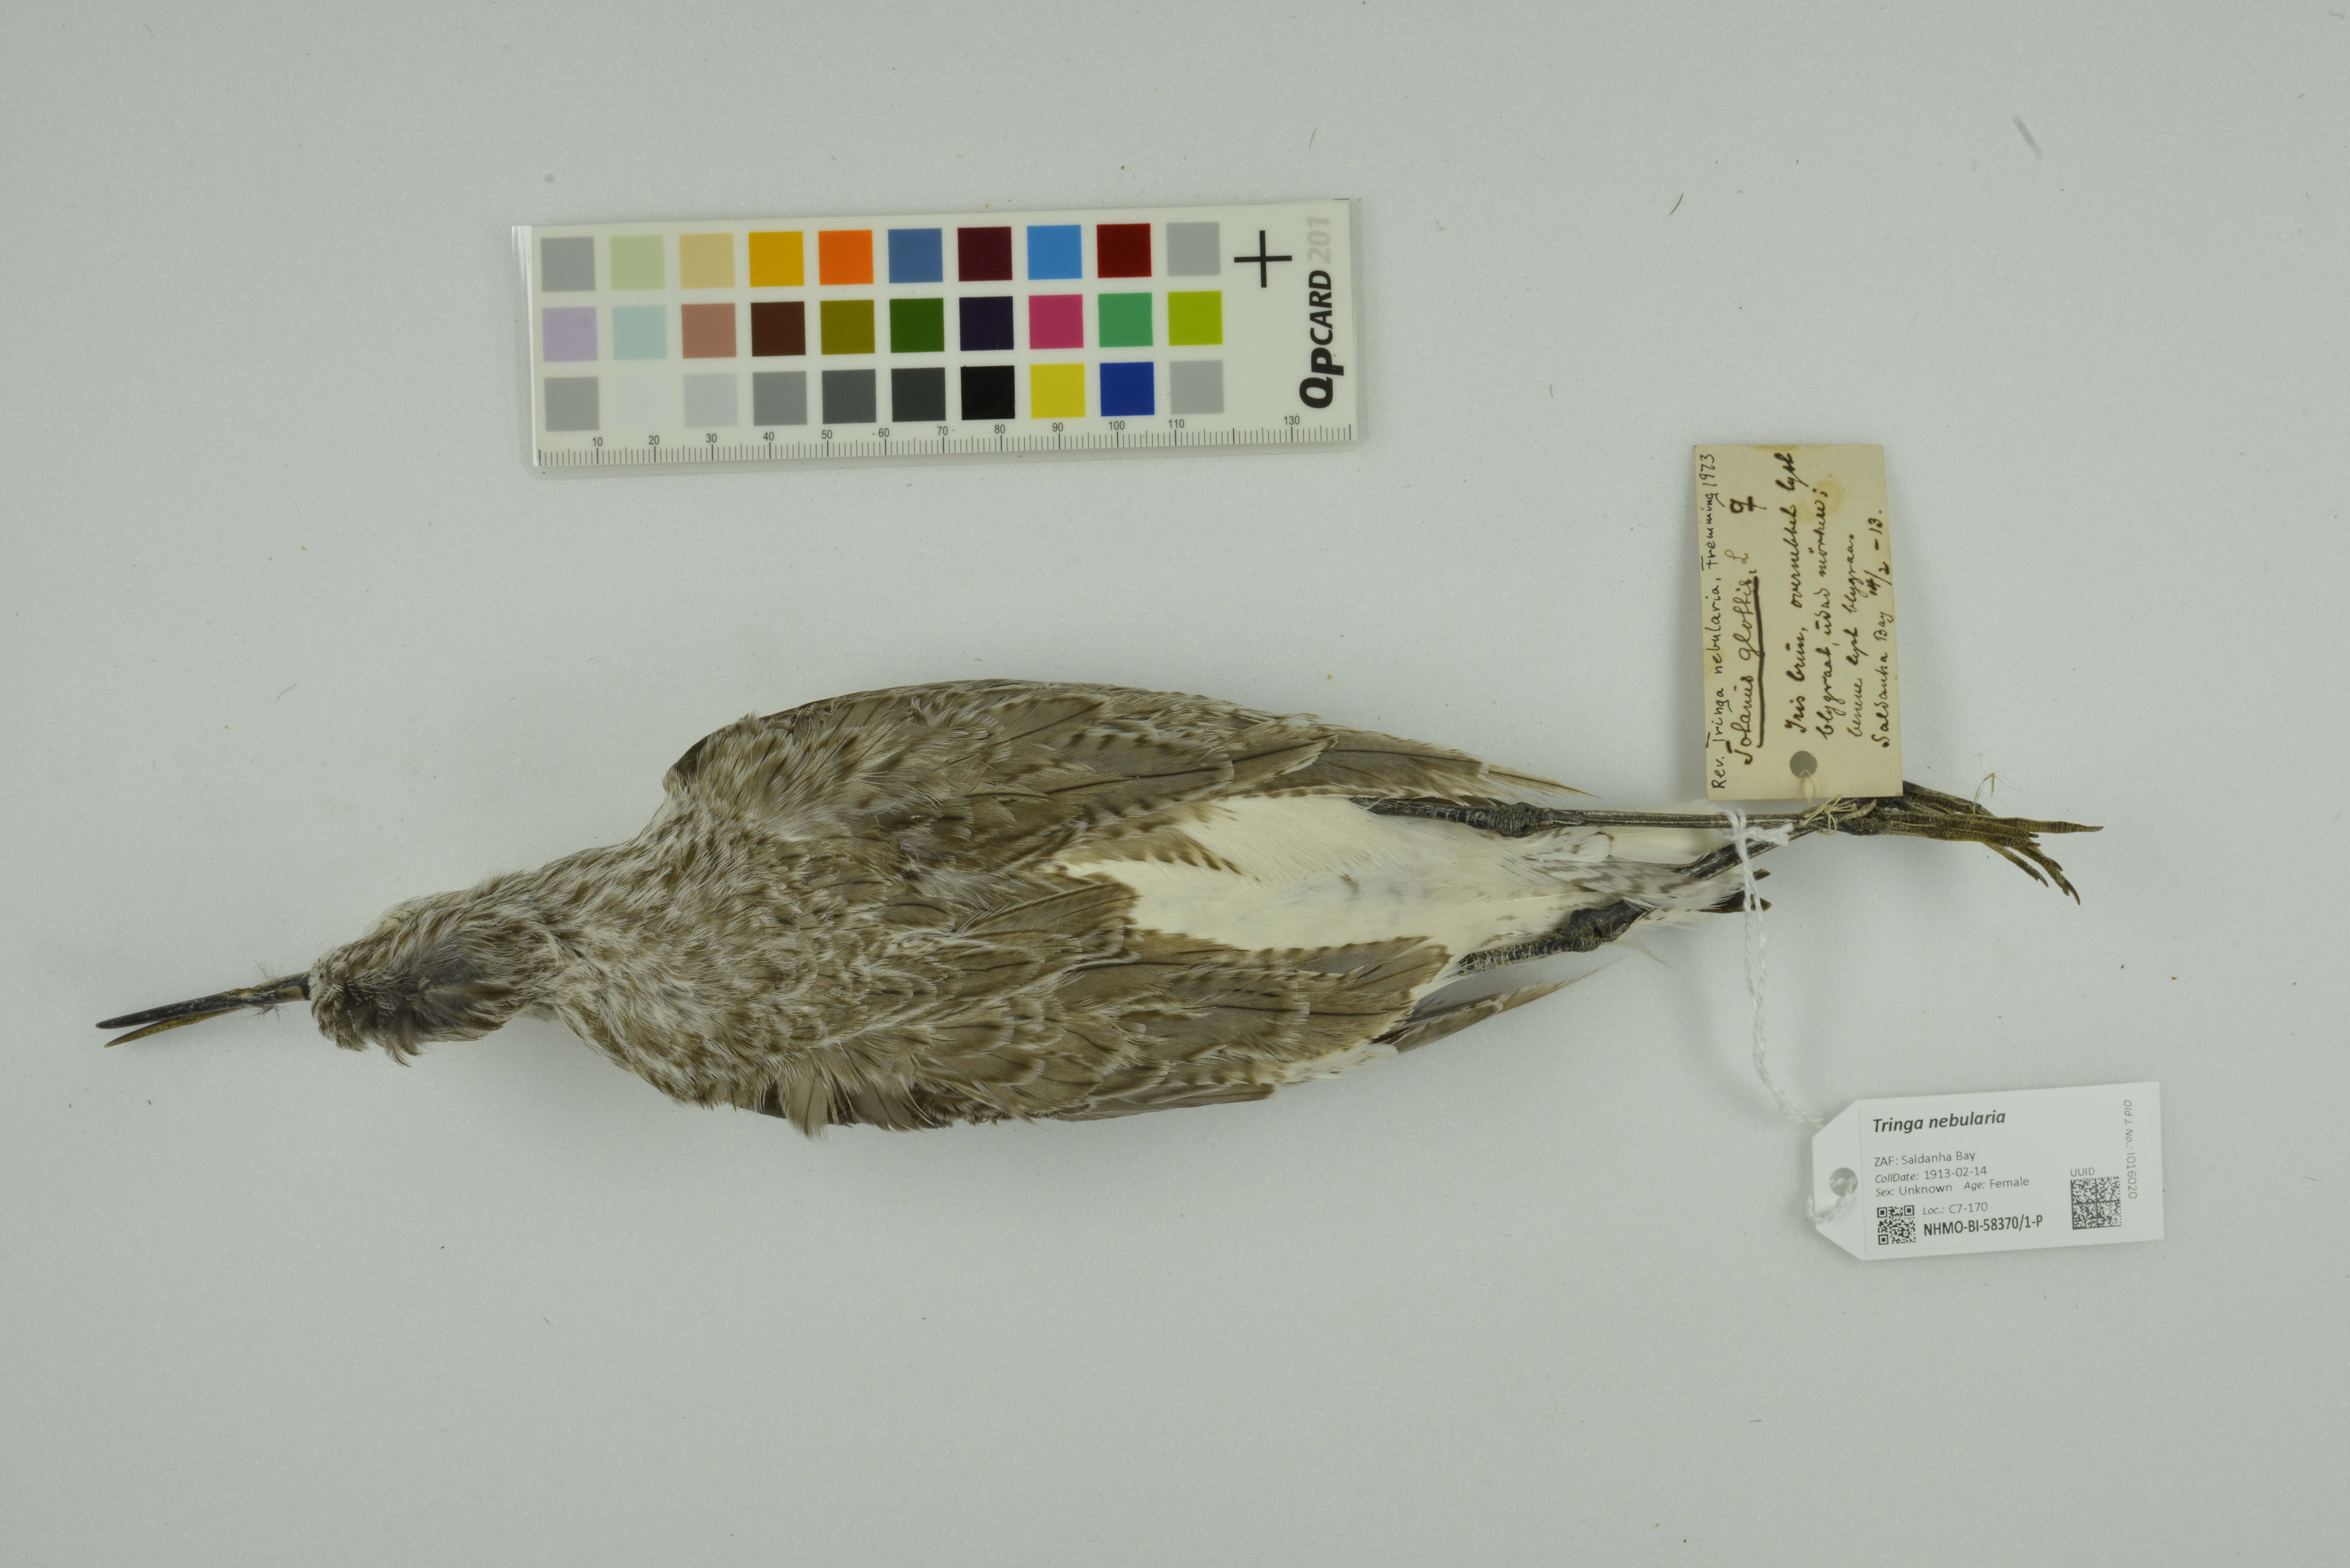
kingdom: Animalia
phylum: Chordata
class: Aves
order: Charadriiformes
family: Scolopacidae
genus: Tringa
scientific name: Tringa nebularia
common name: Common greenshank
